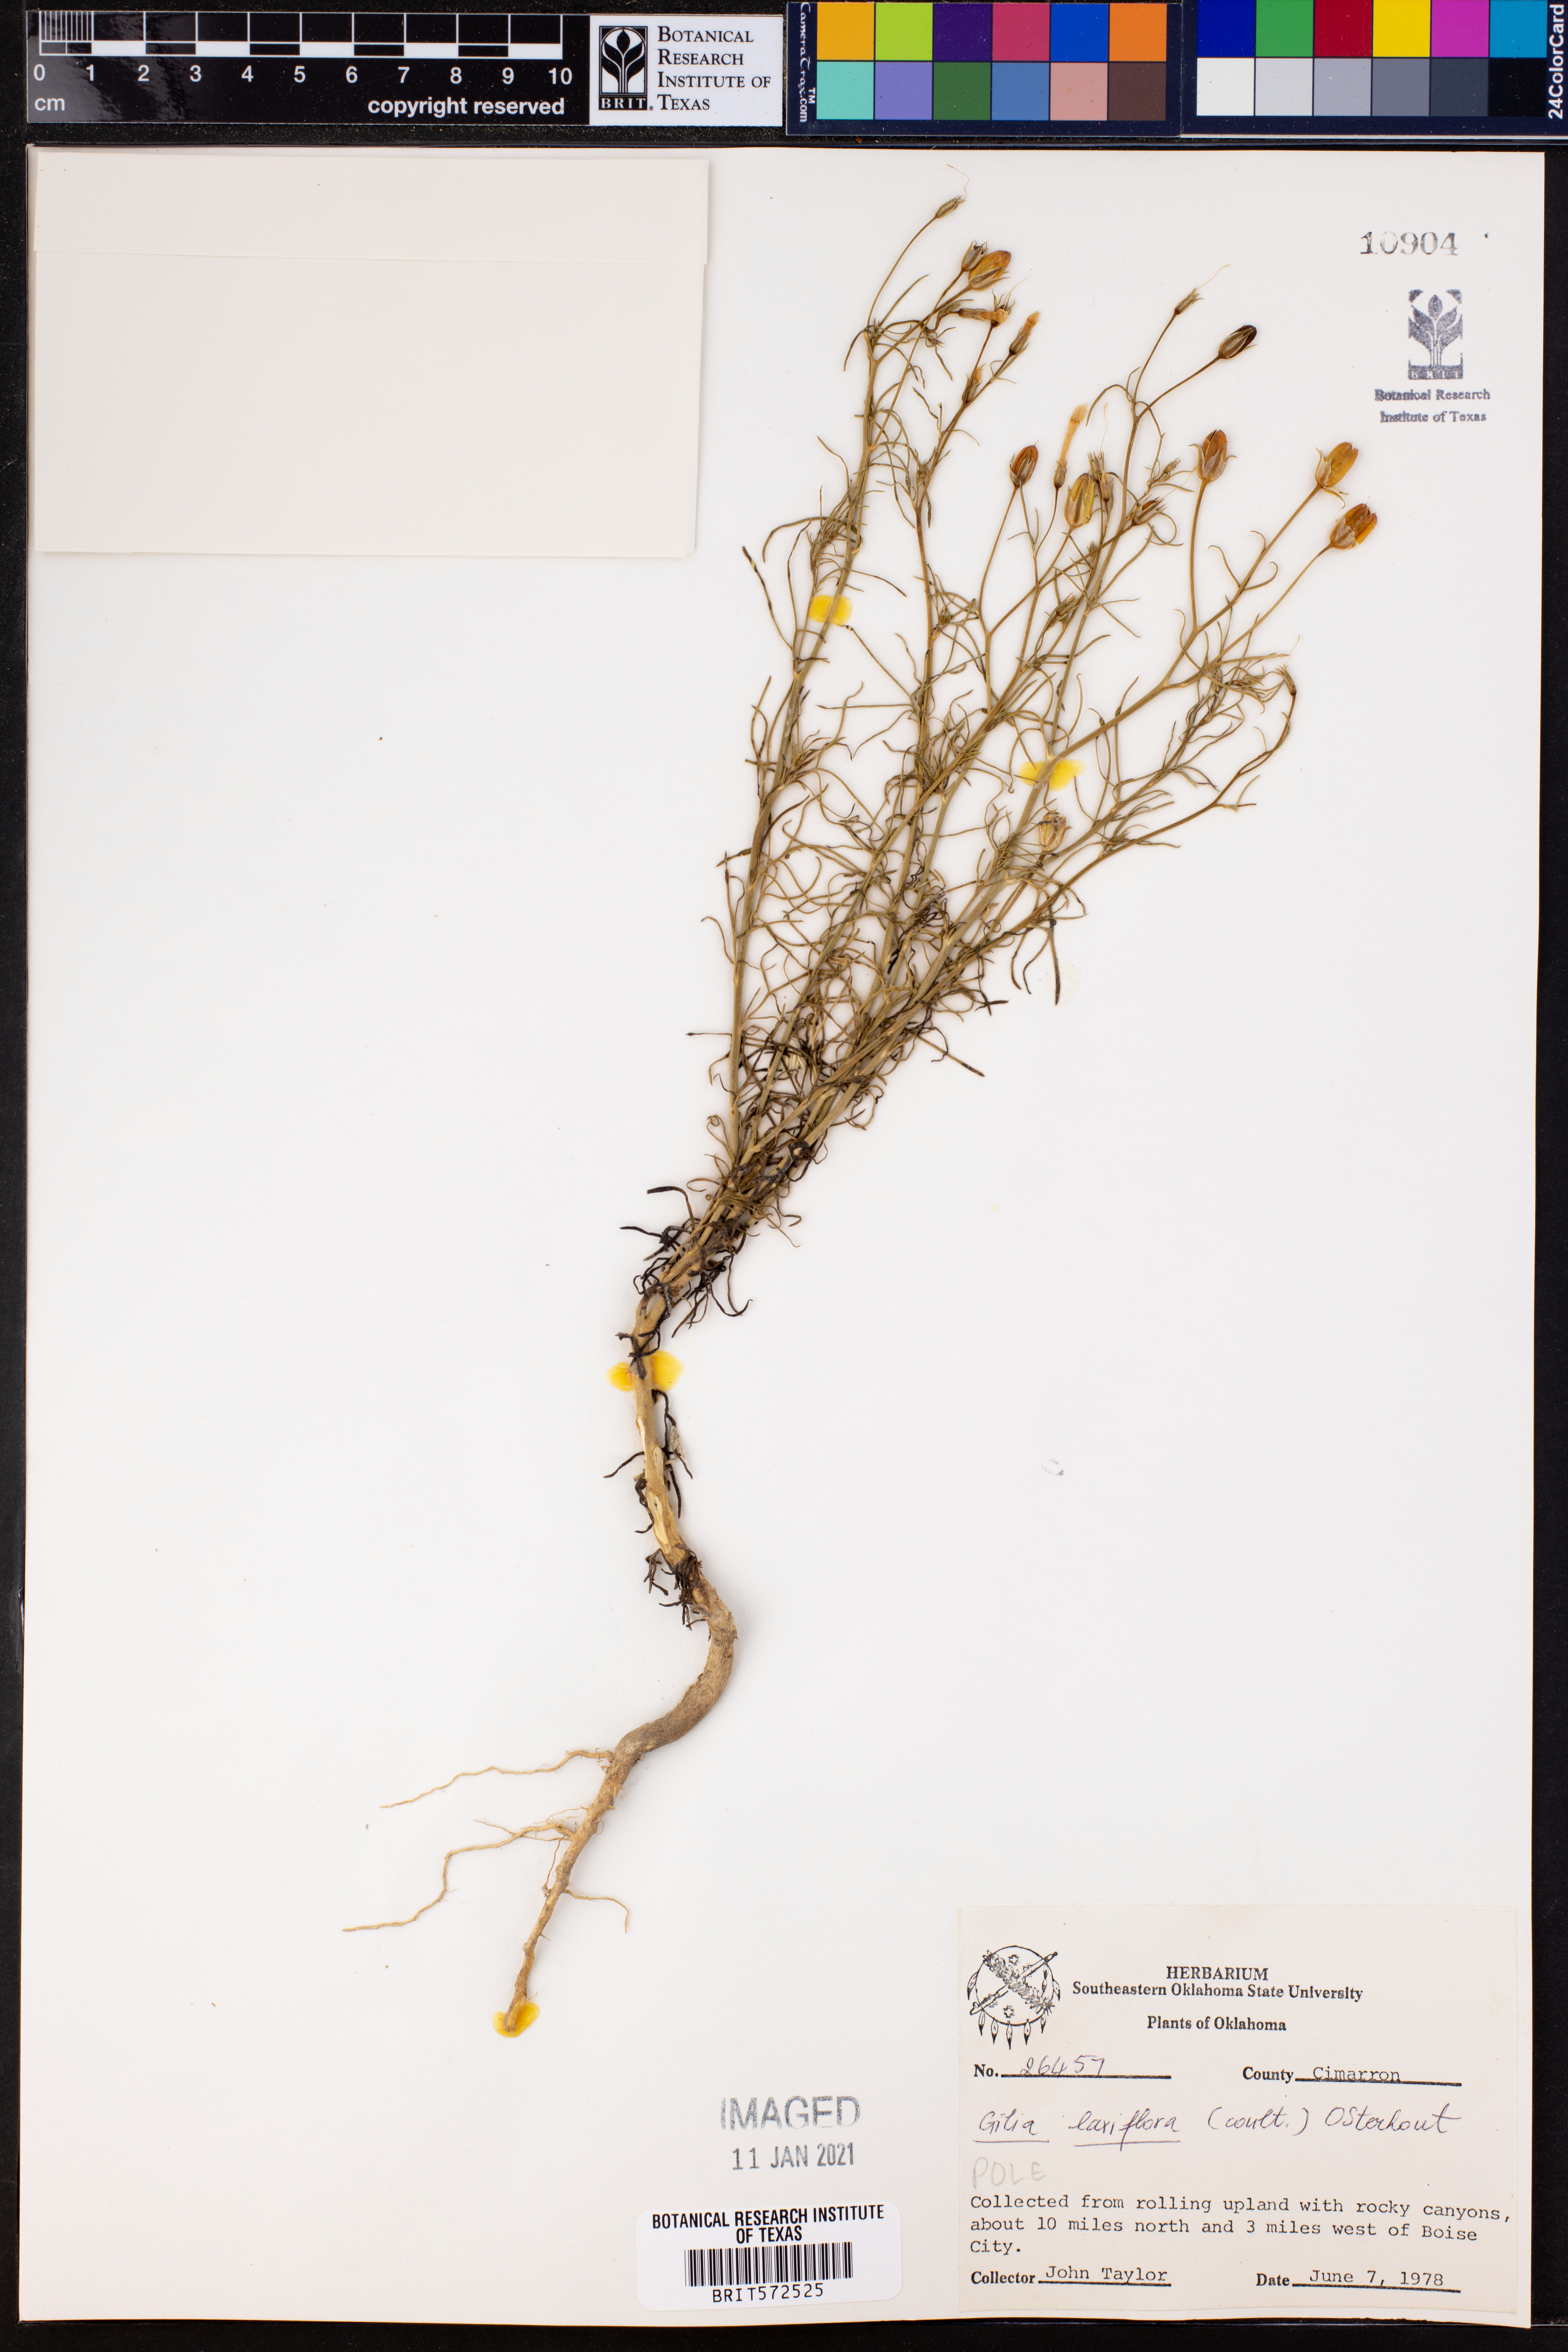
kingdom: Plantae
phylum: Tracheophyta
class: Magnoliopsida
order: Ericales
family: Polemoniaceae
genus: Ipomopsis
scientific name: Ipomopsis laxiflora
